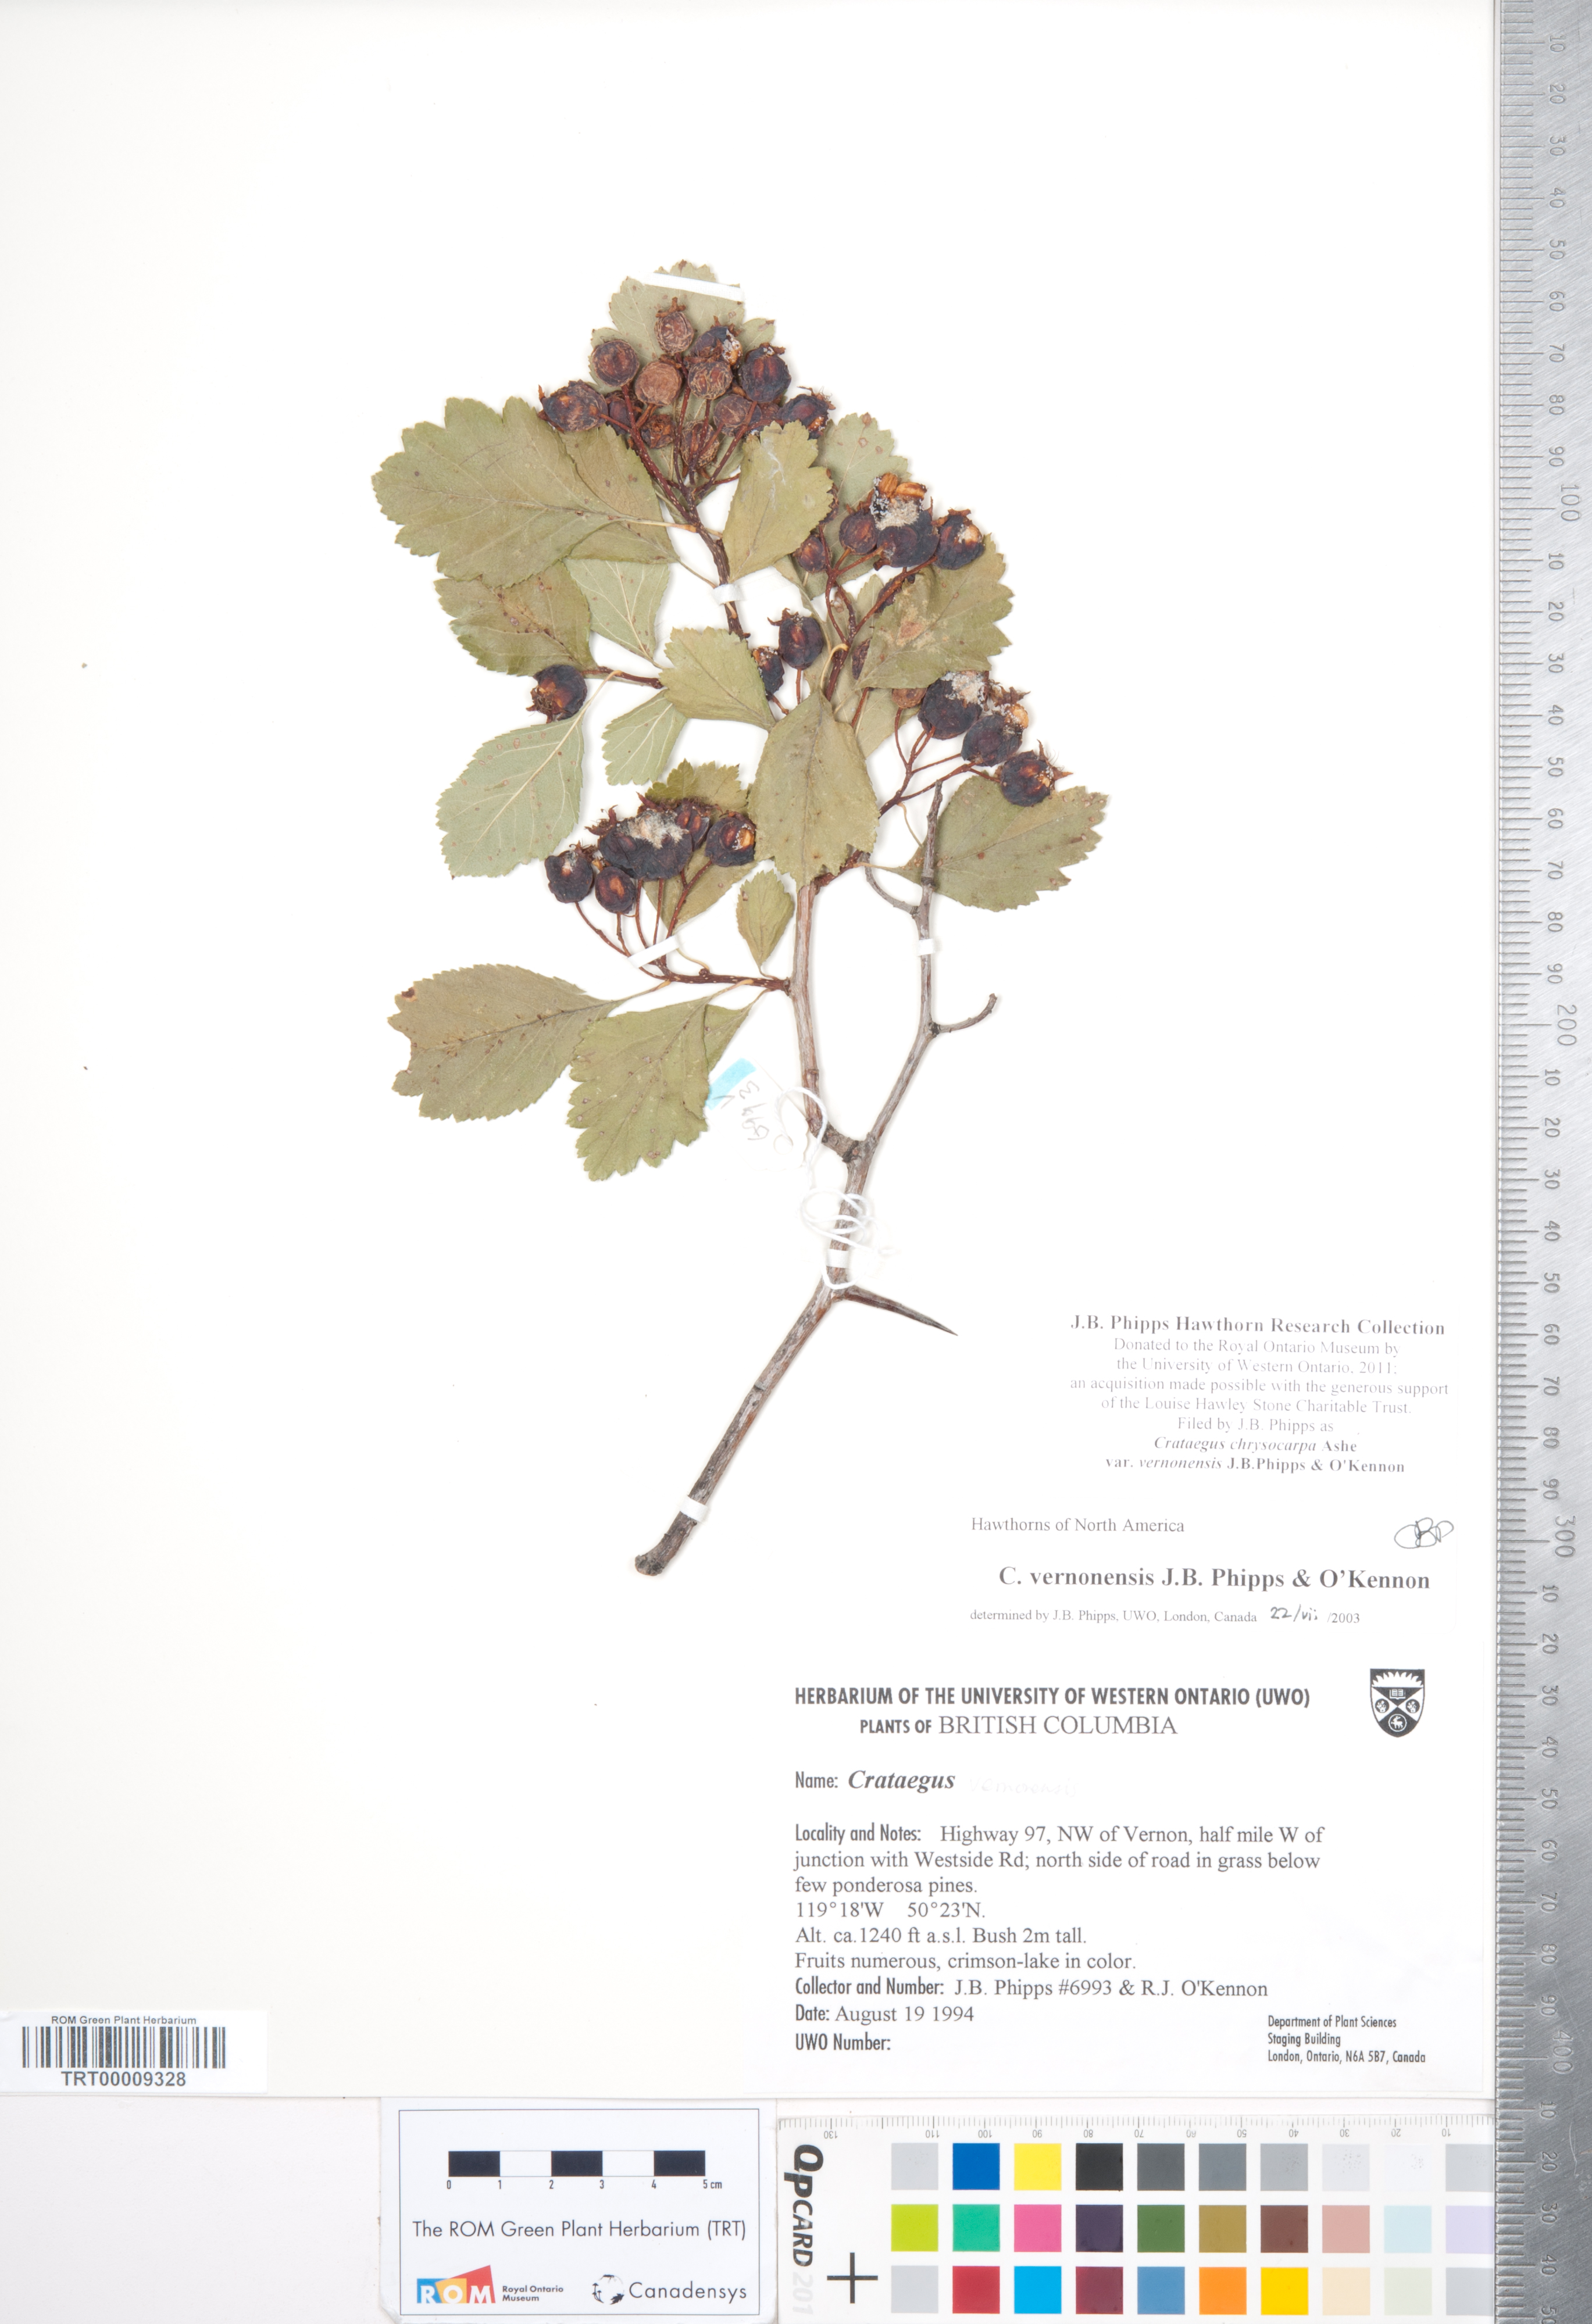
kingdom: Plantae
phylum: Tracheophyta
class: Magnoliopsida
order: Rosales
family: Rosaceae
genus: Crataegus
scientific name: Crataegus chrysocarpa
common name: Fire-berry hawthorn
